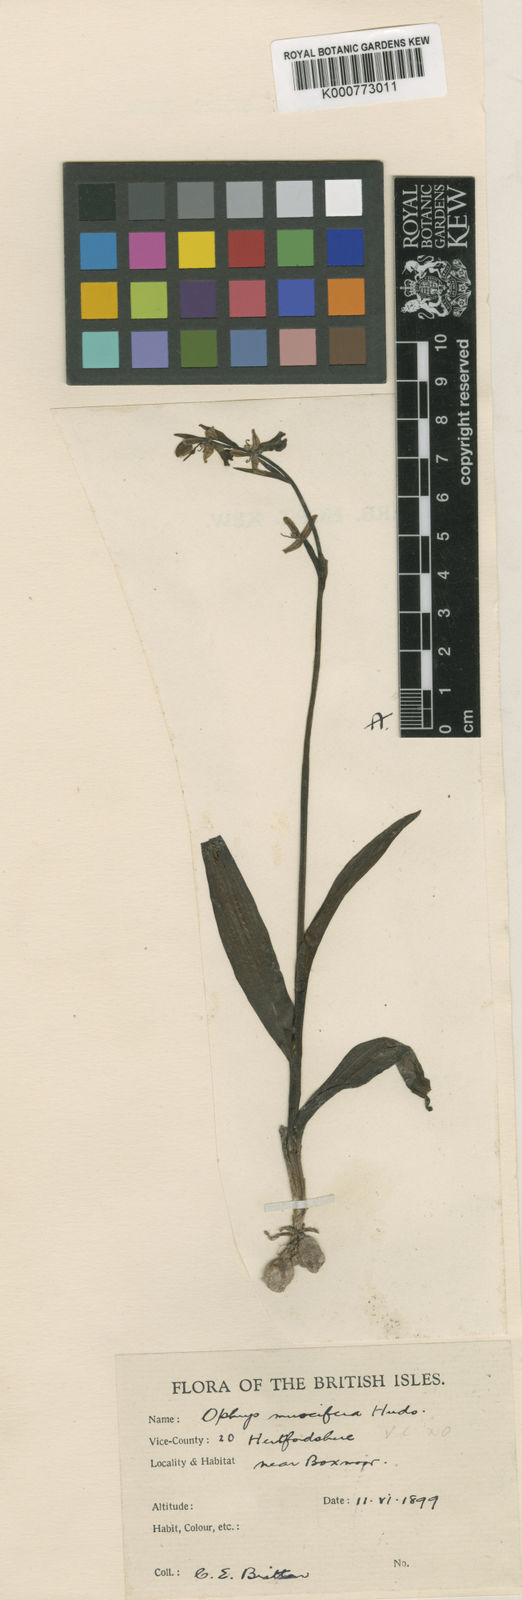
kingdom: Plantae
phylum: Tracheophyta
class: Liliopsida
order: Asparagales
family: Orchidaceae
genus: Ophrys
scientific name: Ophrys insectifera
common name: Fly orchid
